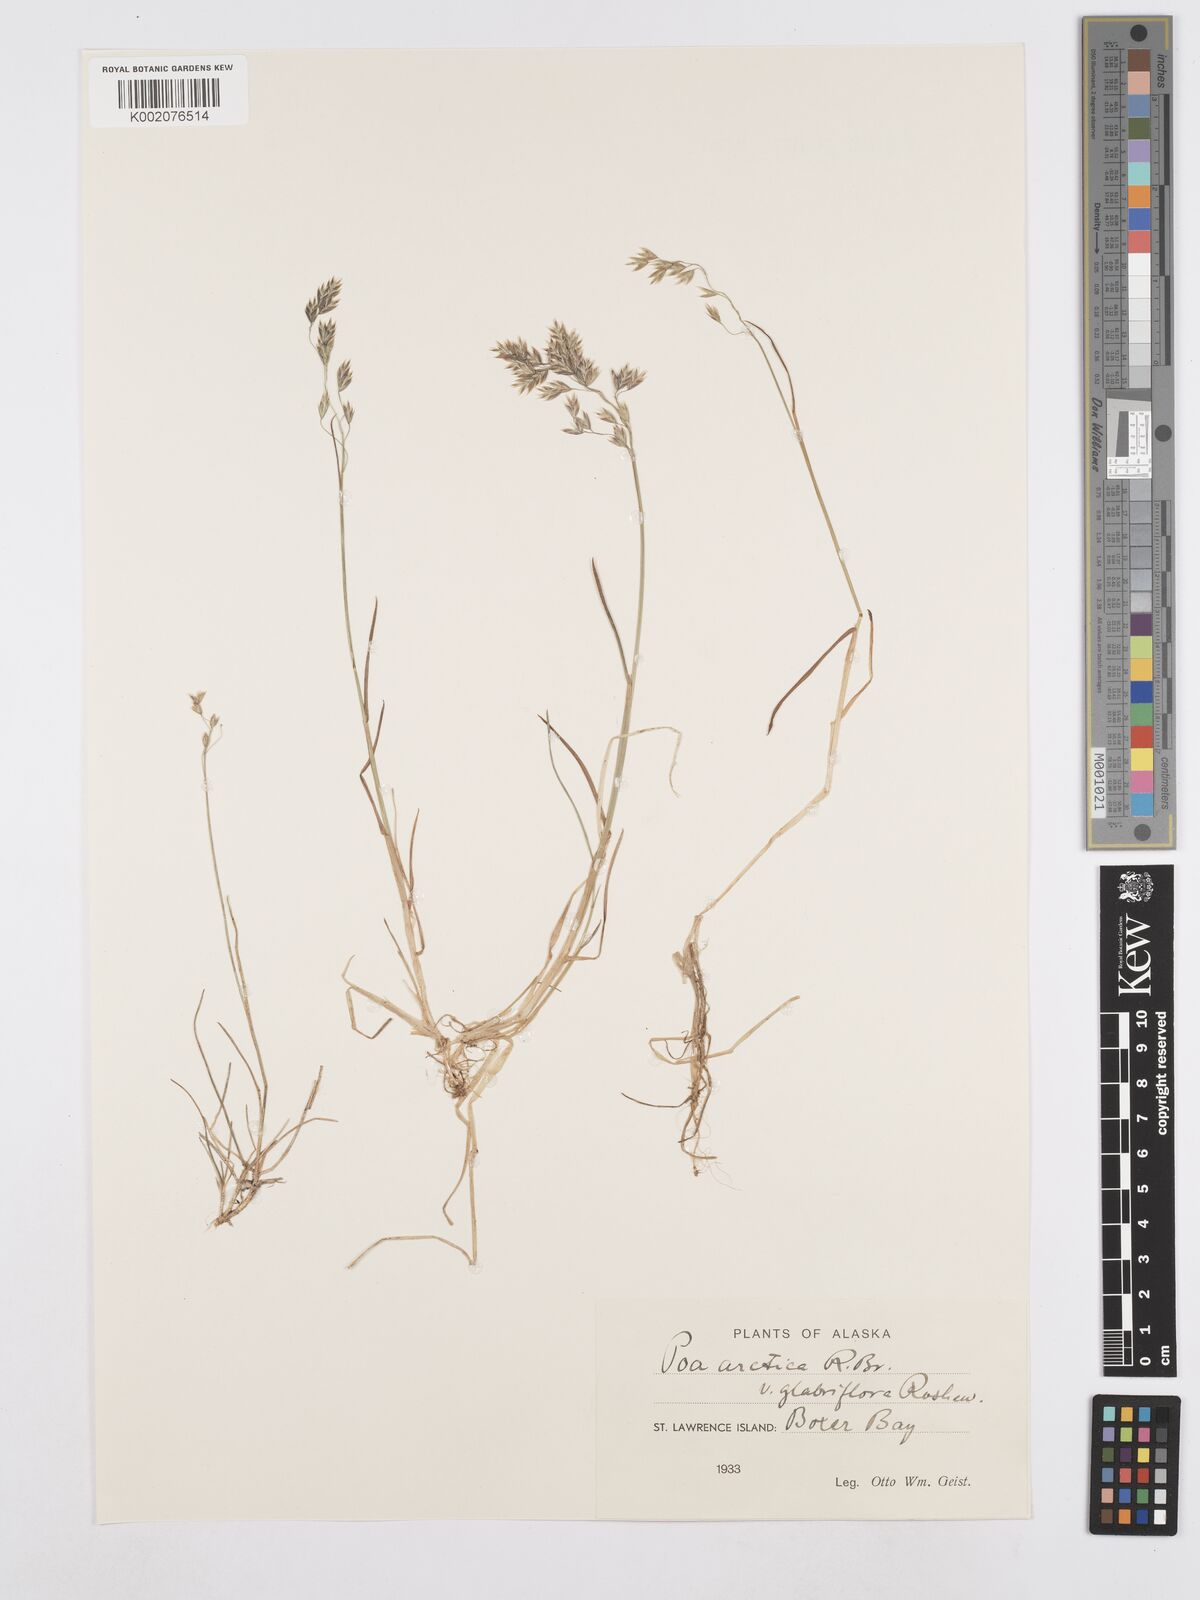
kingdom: Plantae
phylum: Tracheophyta
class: Liliopsida
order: Poales
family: Poaceae
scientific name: Poaceae
